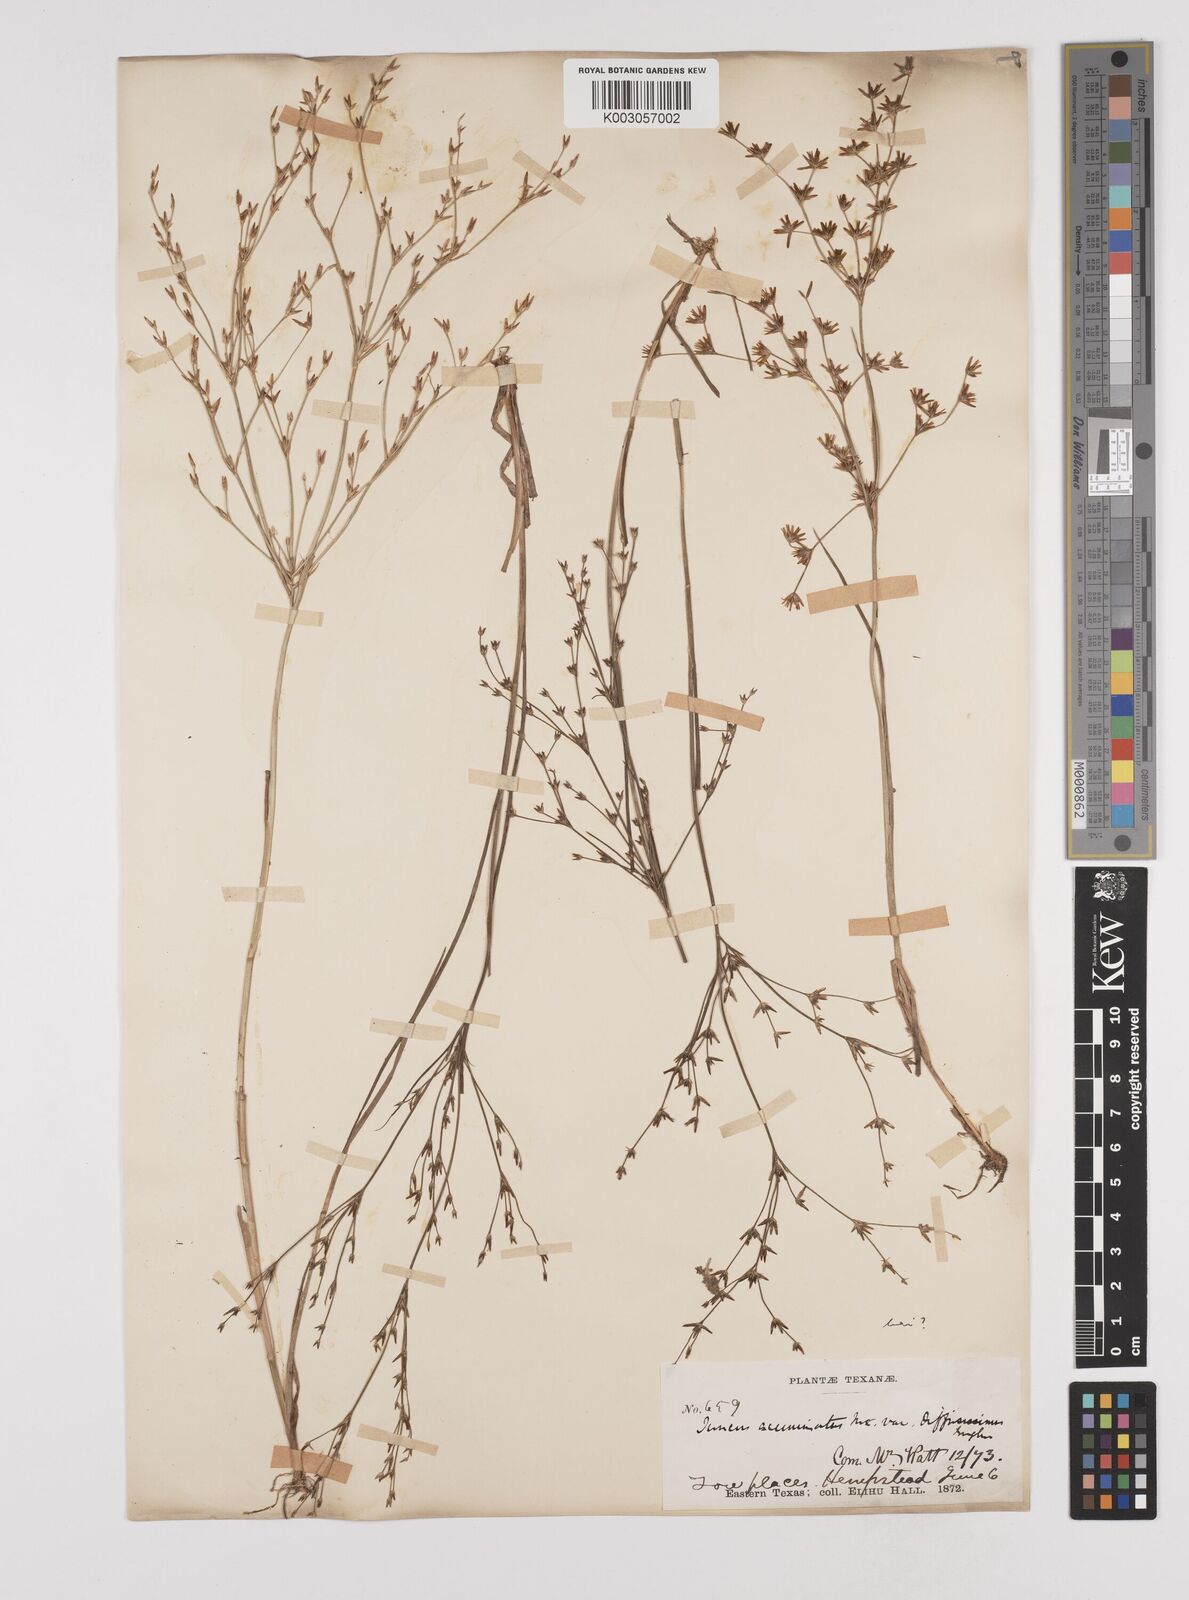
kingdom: Plantae
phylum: Tracheophyta
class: Liliopsida
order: Poales
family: Juncaceae
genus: Juncus
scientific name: Juncus brevicaudatus
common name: Narrow-panicle rush
